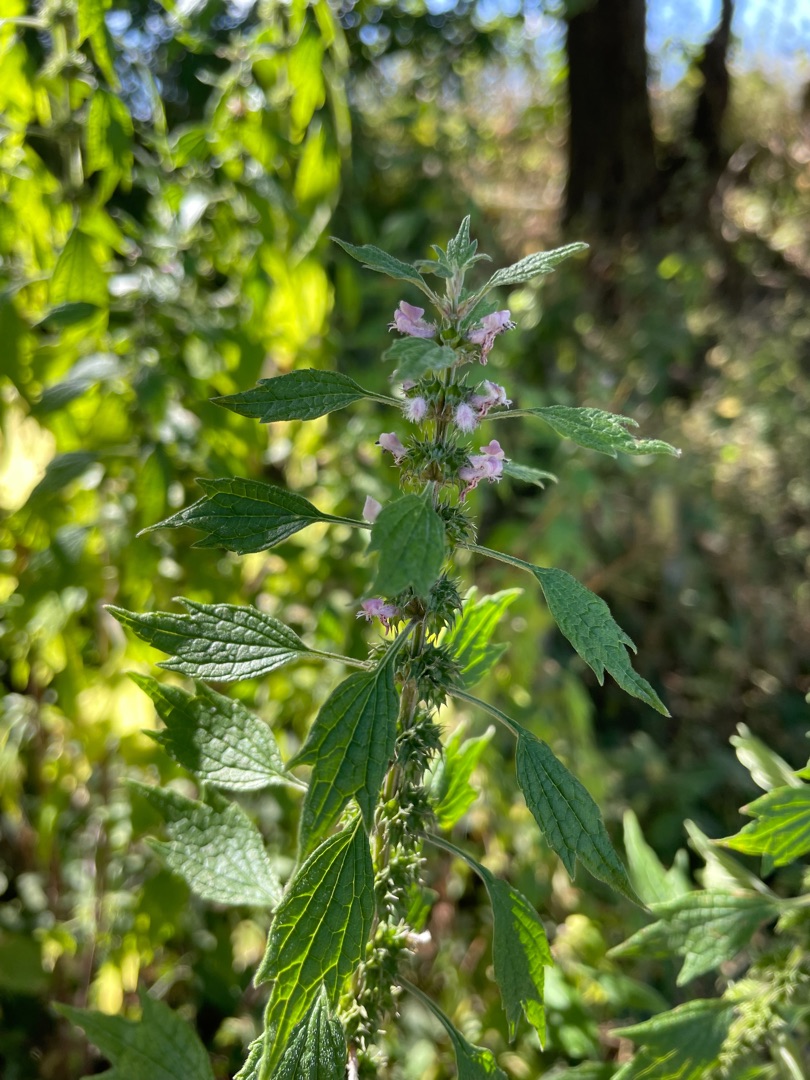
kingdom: Plantae
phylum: Tracheophyta
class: Magnoliopsida
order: Lamiales
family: Lamiaceae
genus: Leonurus
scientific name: Leonurus cardiaca
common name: Hjertespand
